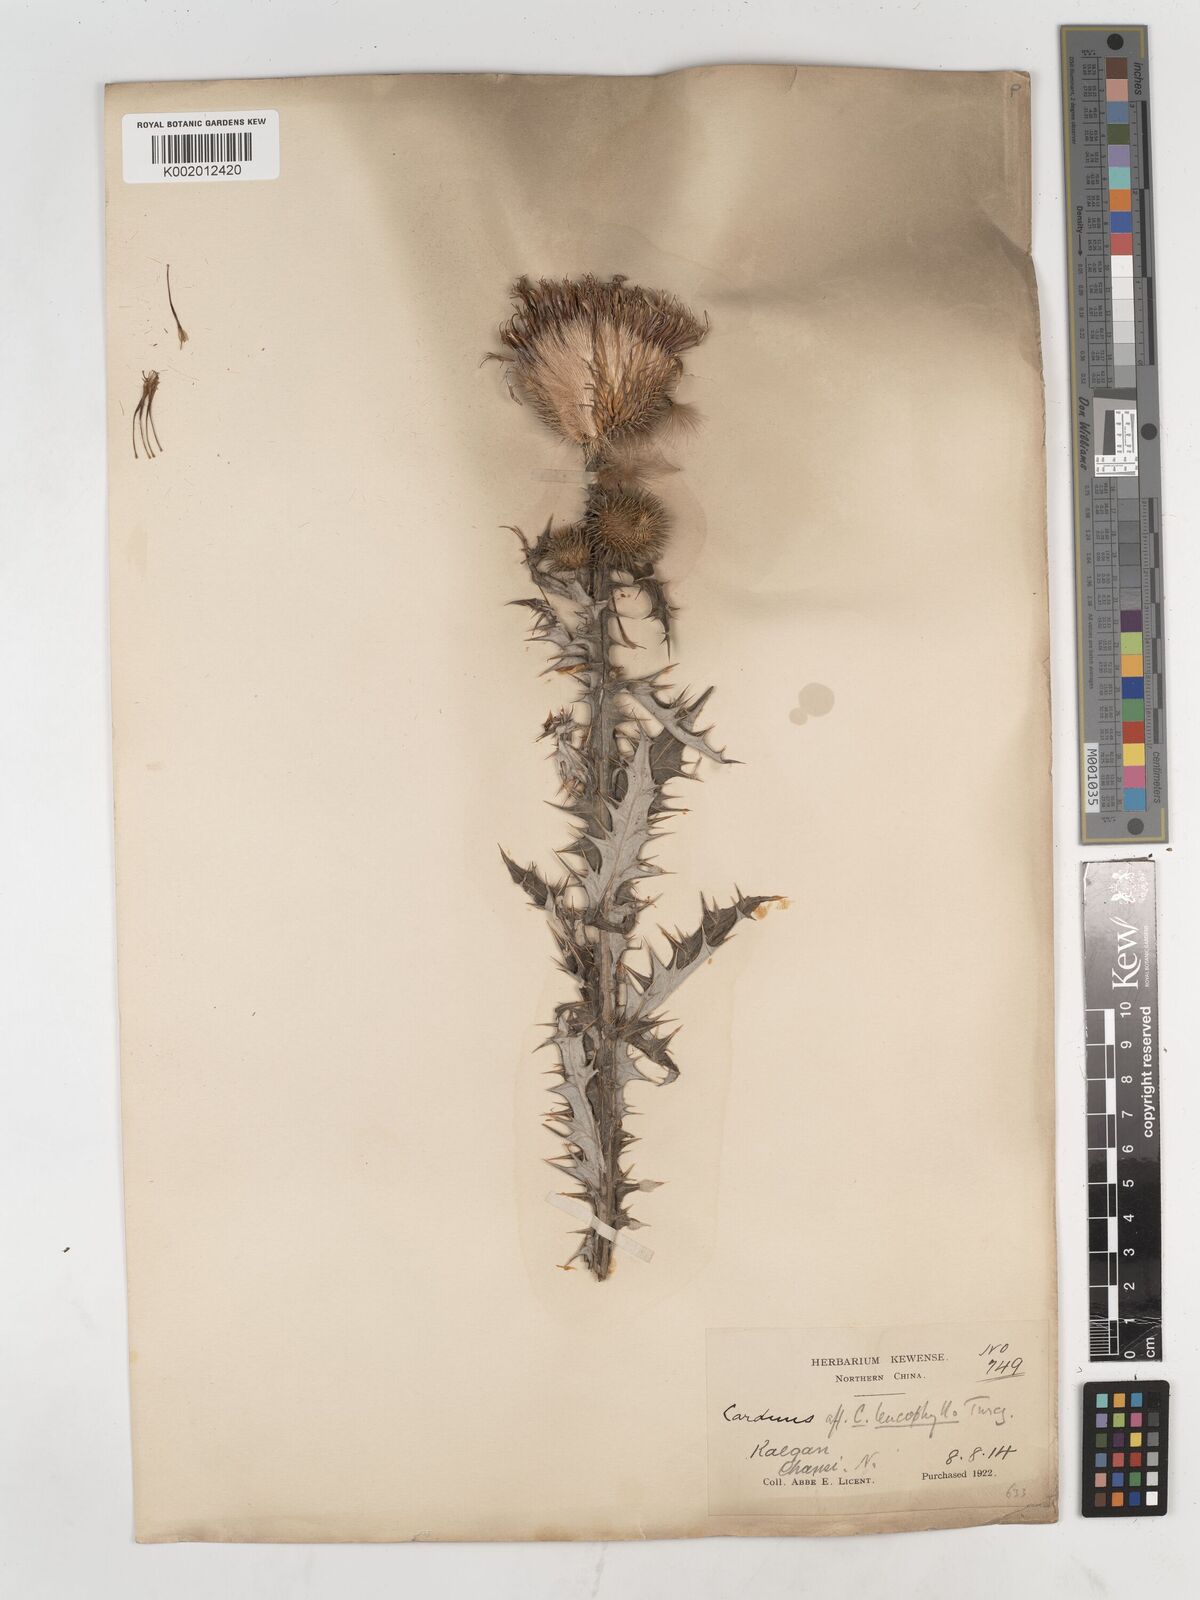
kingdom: Plantae
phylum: Tracheophyta
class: Magnoliopsida
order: Asterales
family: Asteraceae
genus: Cirsium
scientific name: Cirsium
